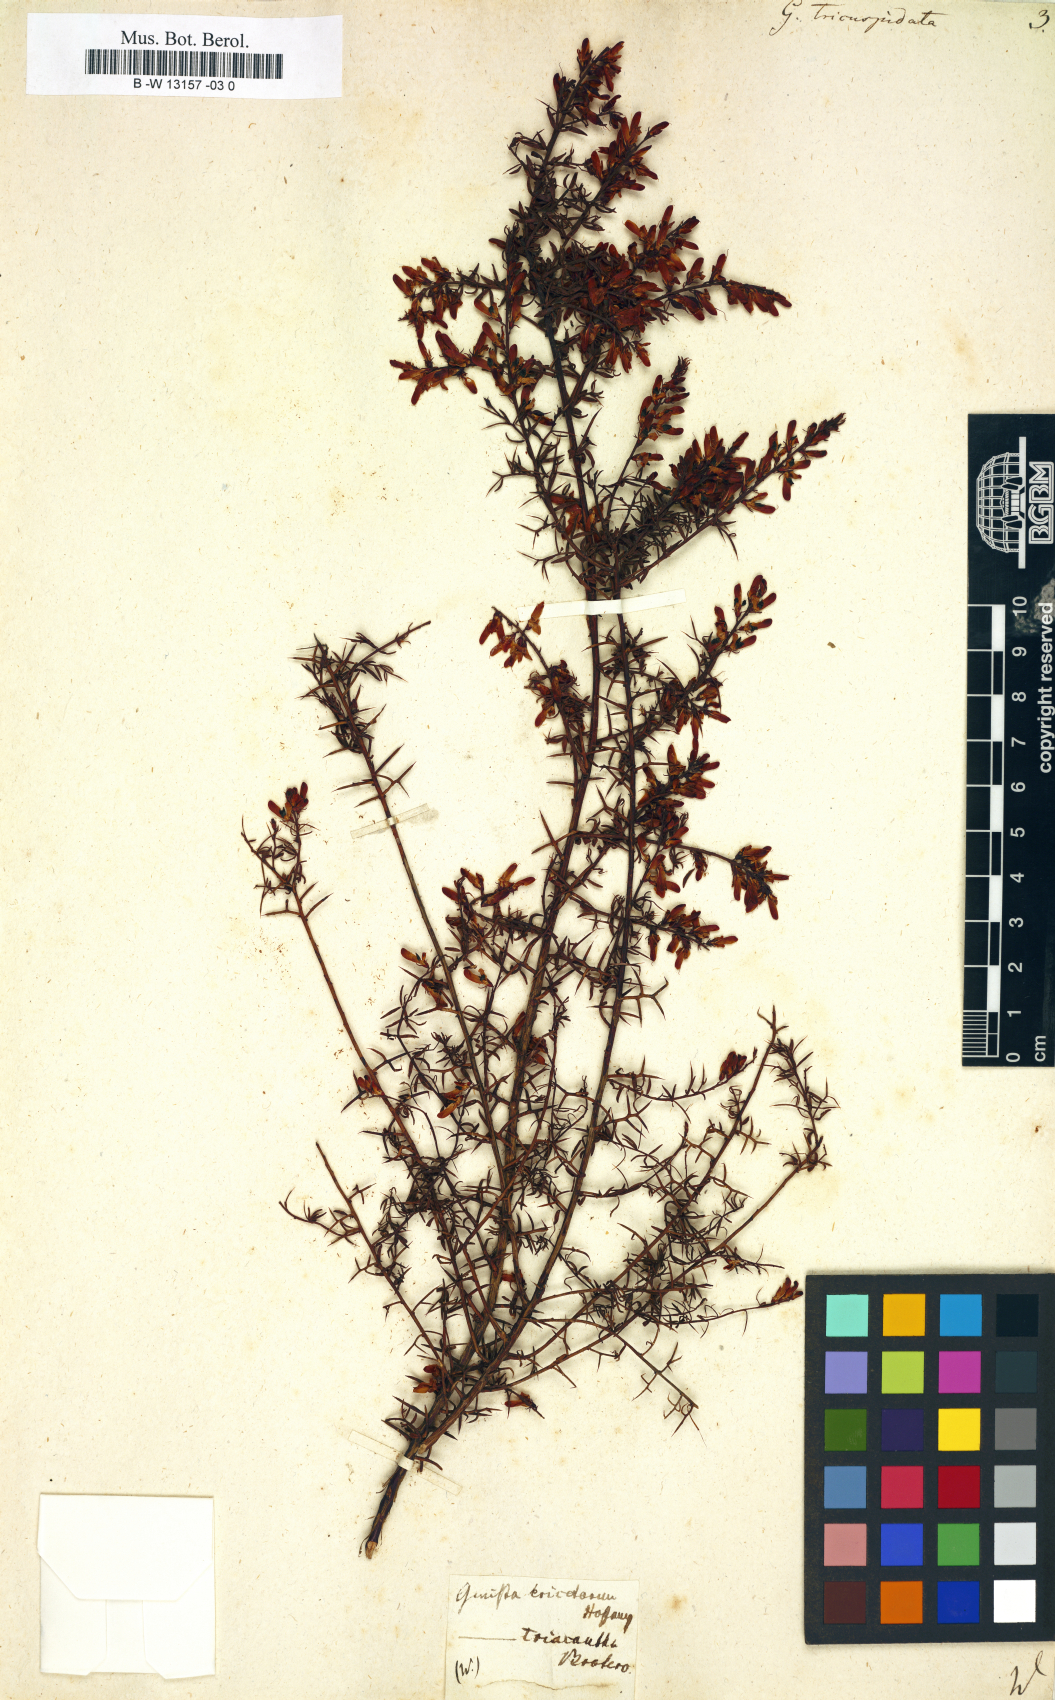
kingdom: Plantae
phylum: Tracheophyta
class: Magnoliopsida
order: Fabales
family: Fabaceae
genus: Genista
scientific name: Genista tricuspidata
